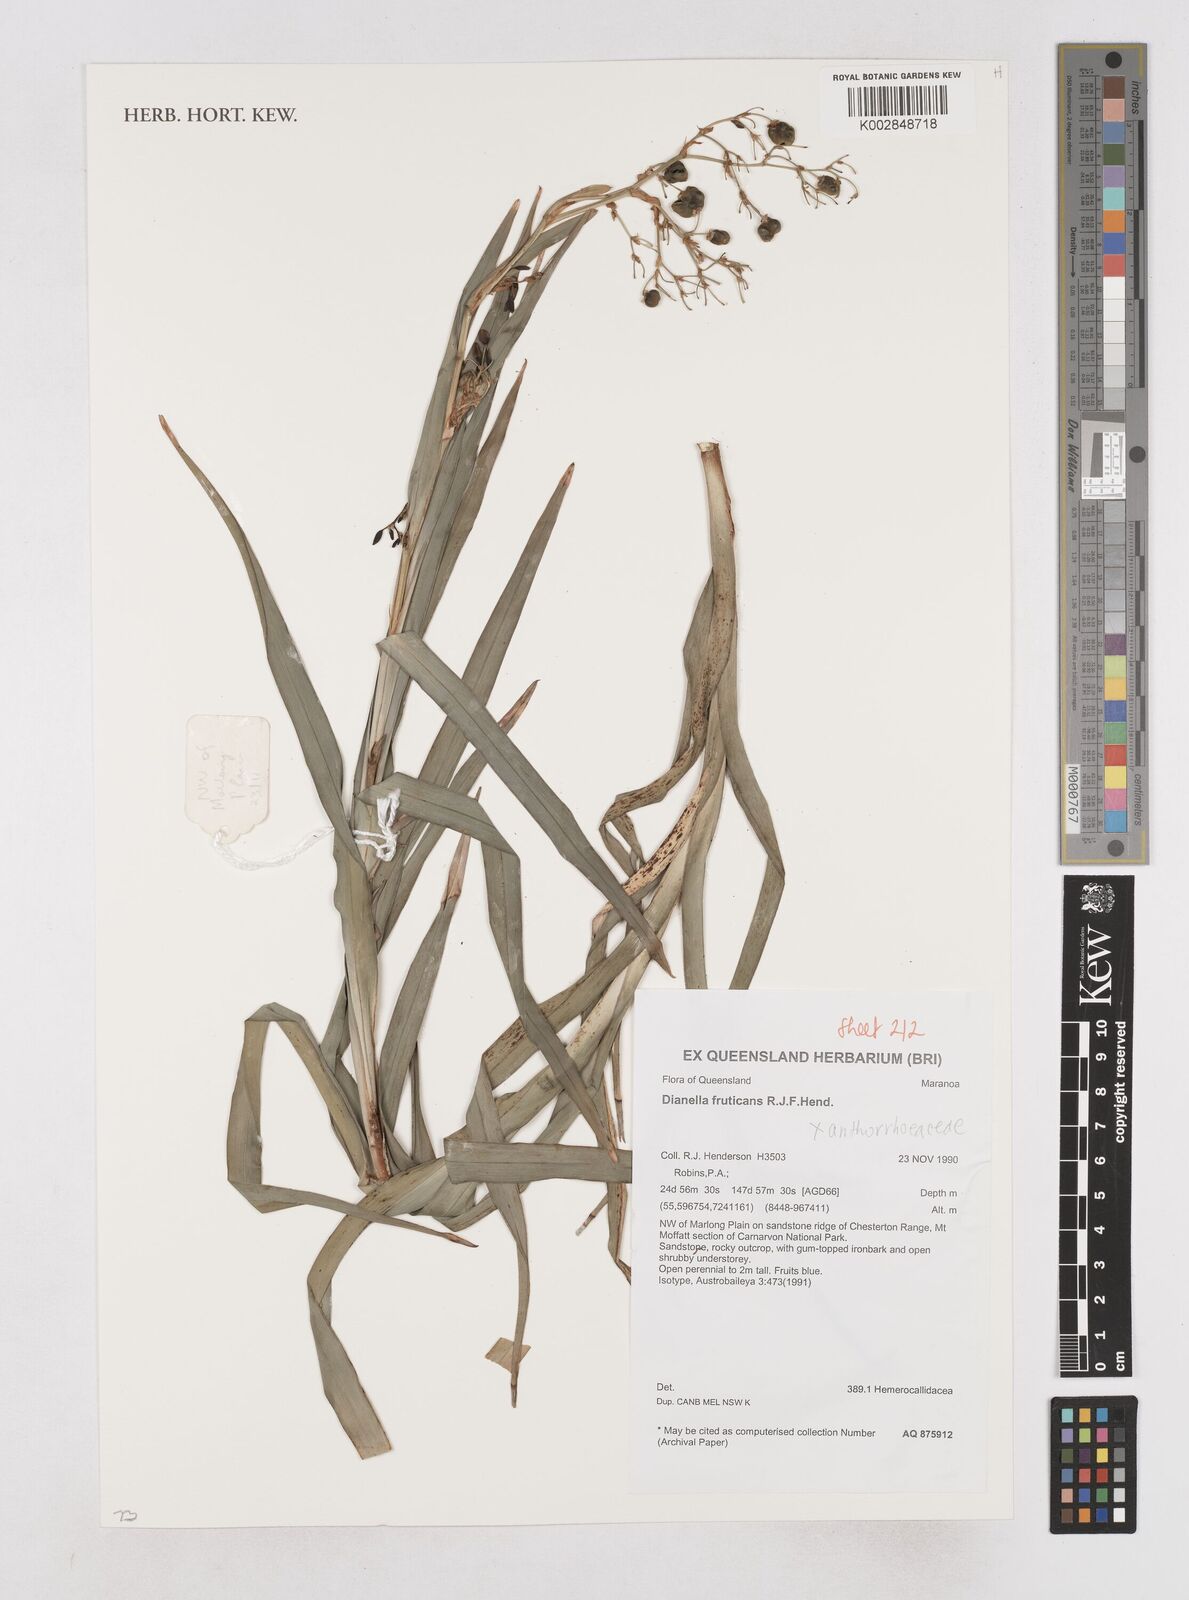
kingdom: Plantae
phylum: Tracheophyta
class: Liliopsida
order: Asparagales
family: Asphodelaceae
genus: Dianella
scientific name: Dianella fruticans
